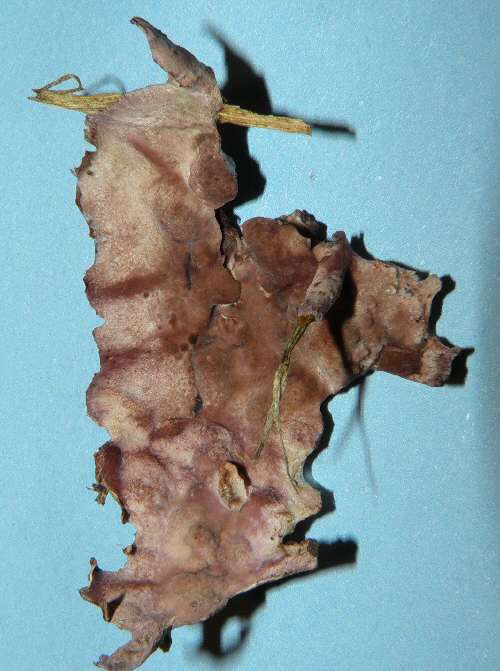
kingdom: Fungi
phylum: Basidiomycota
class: Agaricomycetes
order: Agaricales
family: Cyphellaceae
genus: Chondrostereum
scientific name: Chondrostereum purpureum
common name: purpurlædersvamp
